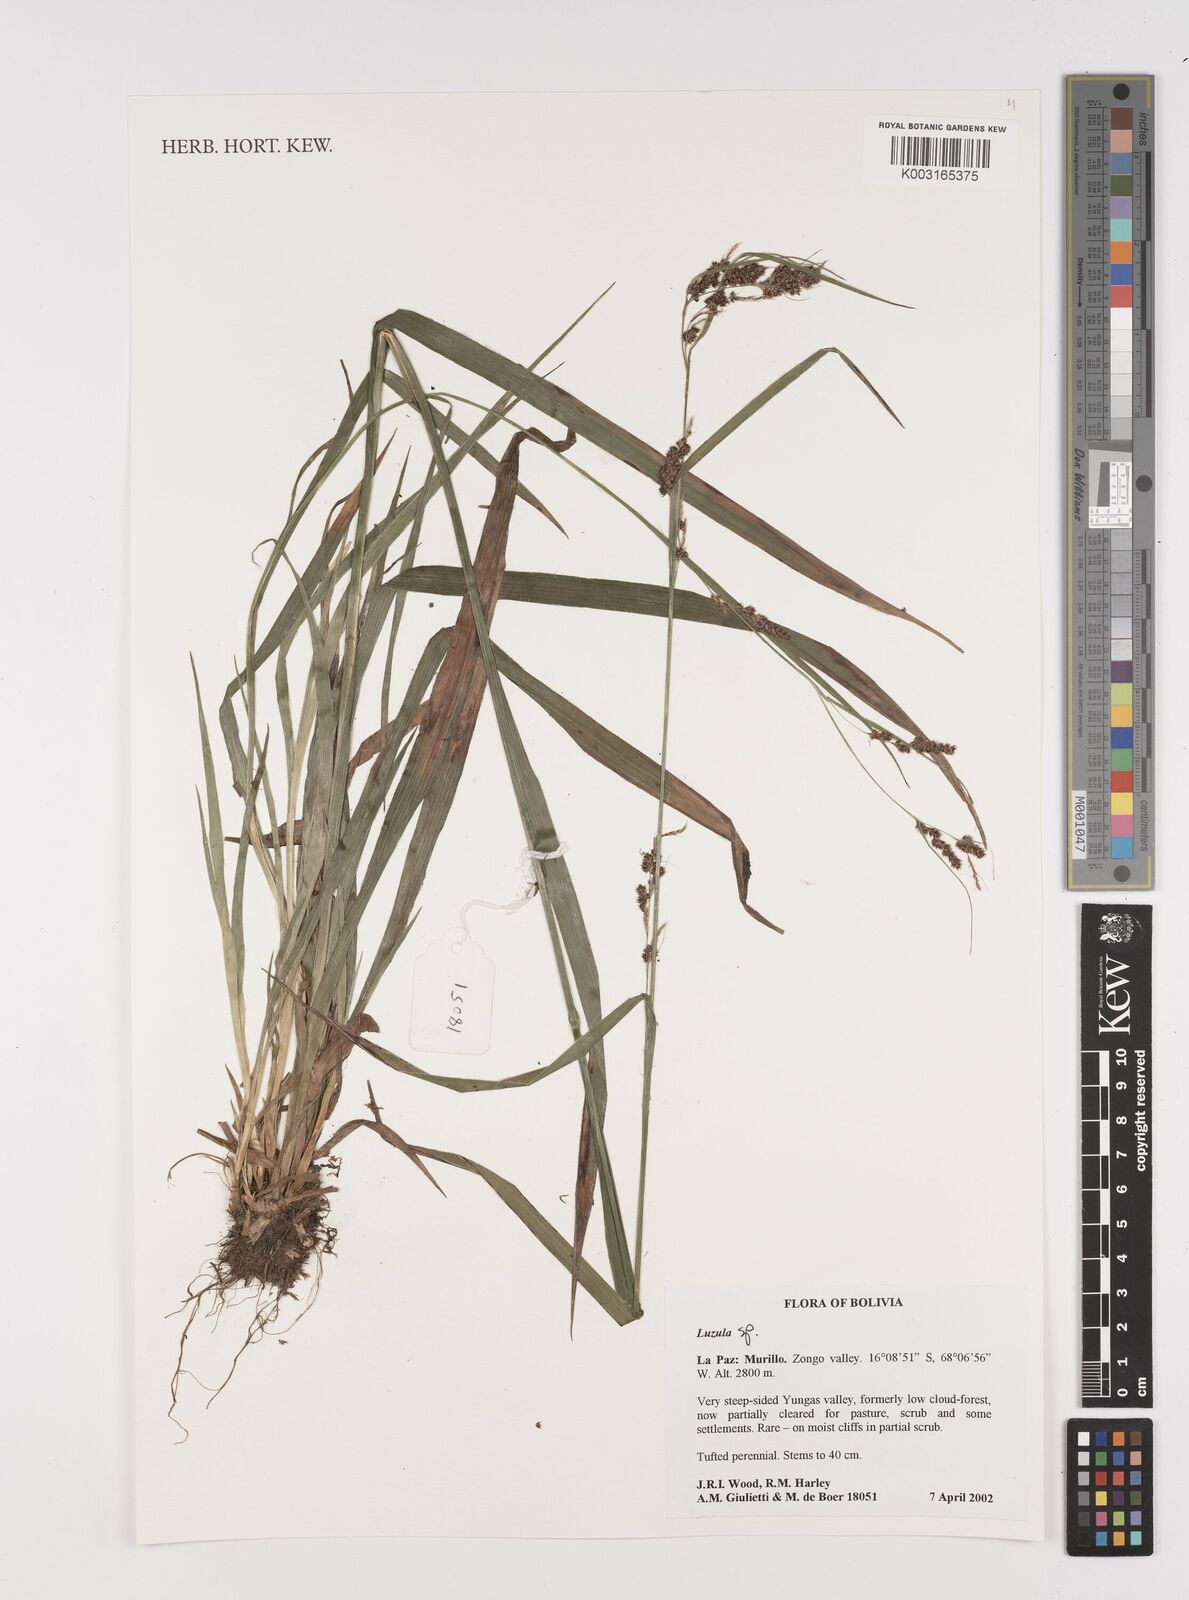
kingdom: Plantae
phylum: Tracheophyta
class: Liliopsida
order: Poales
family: Juncaceae
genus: Luzula
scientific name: Luzula
